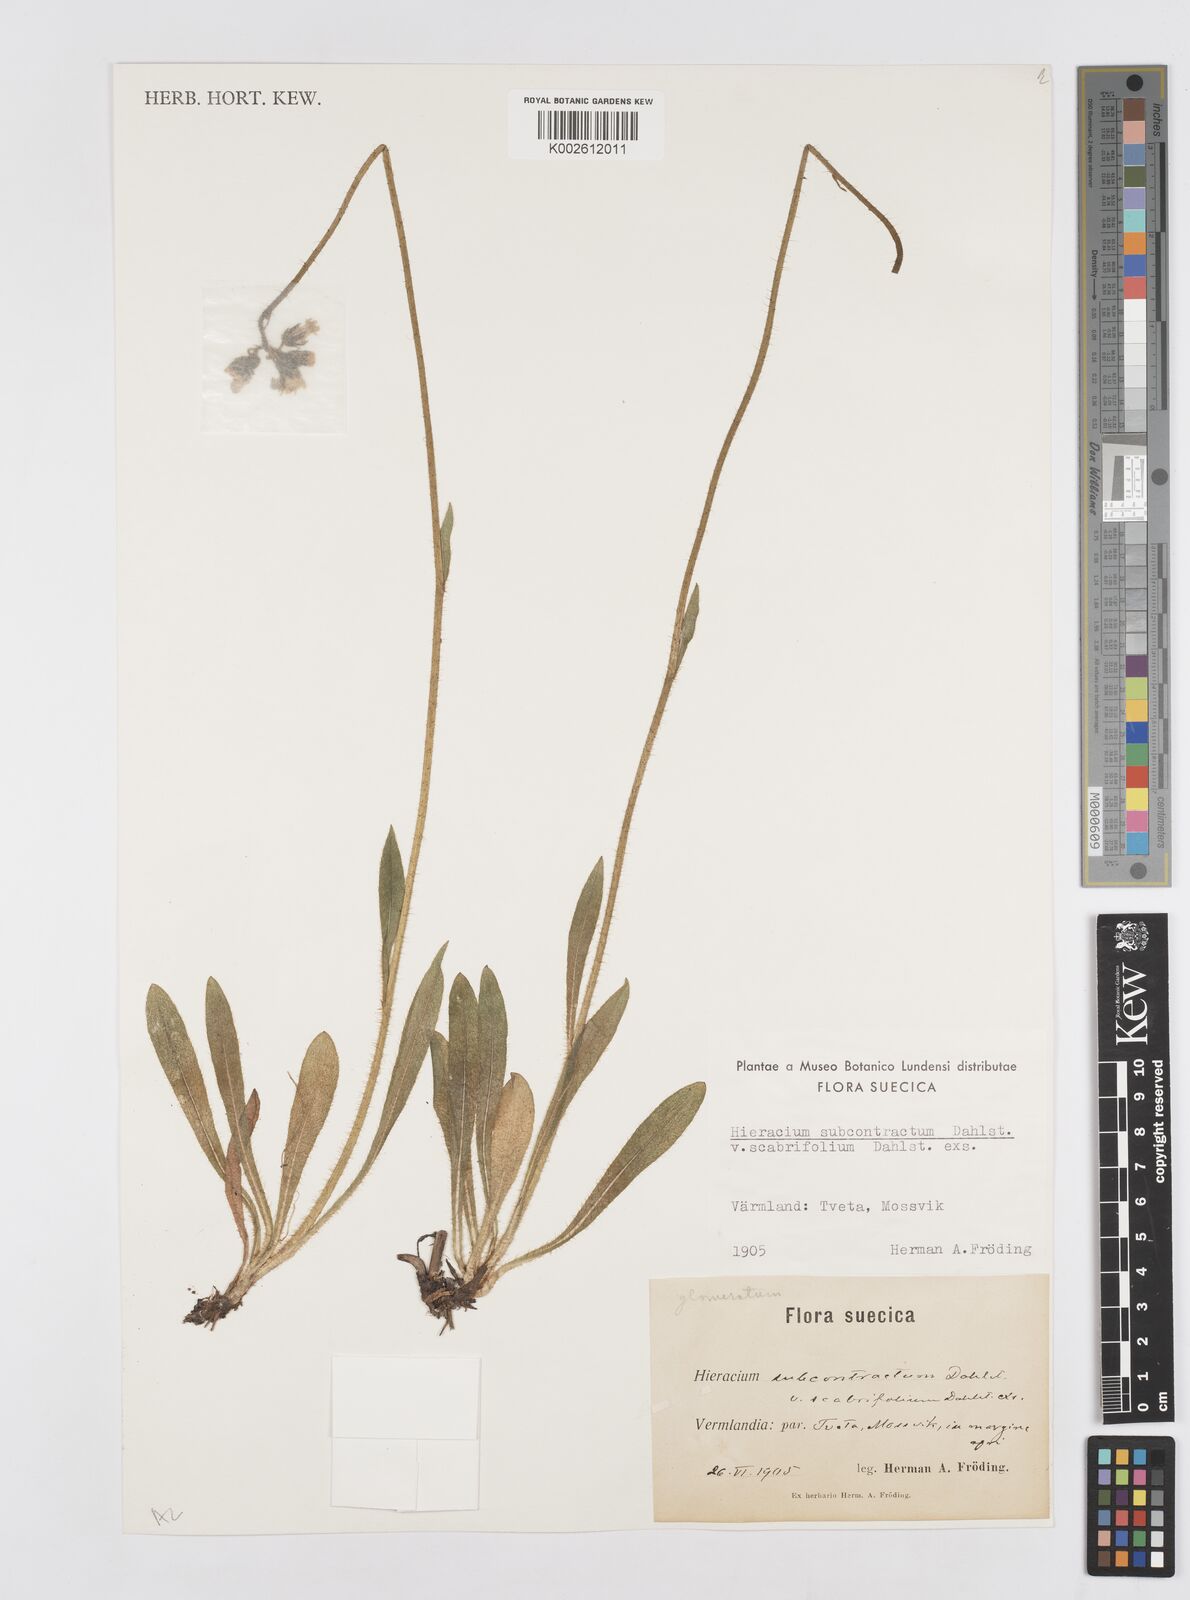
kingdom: Plantae
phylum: Tracheophyta
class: Magnoliopsida
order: Asterales
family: Asteraceae
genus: Hieracium
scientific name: Hieracium
